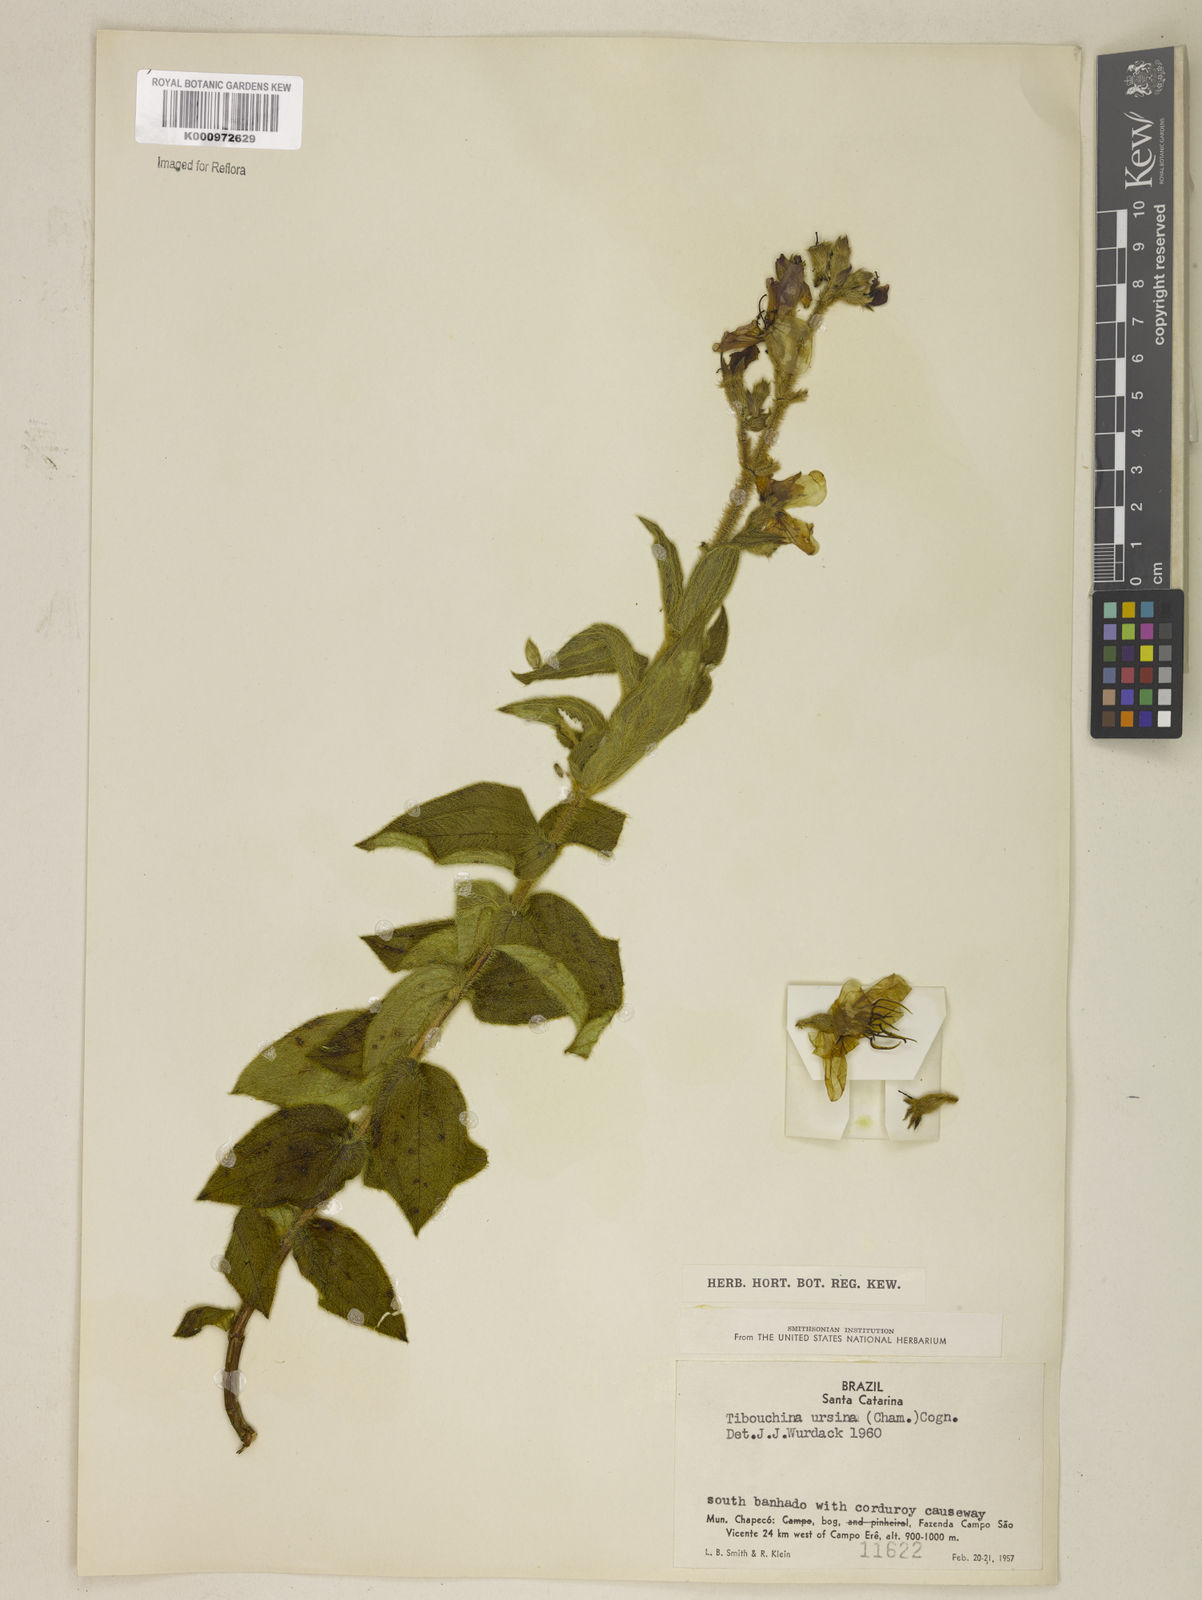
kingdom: Plantae
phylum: Tracheophyta
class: Magnoliopsida
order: Myrtales
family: Melastomataceae
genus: Pleroma
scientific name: Pleroma ursinum
